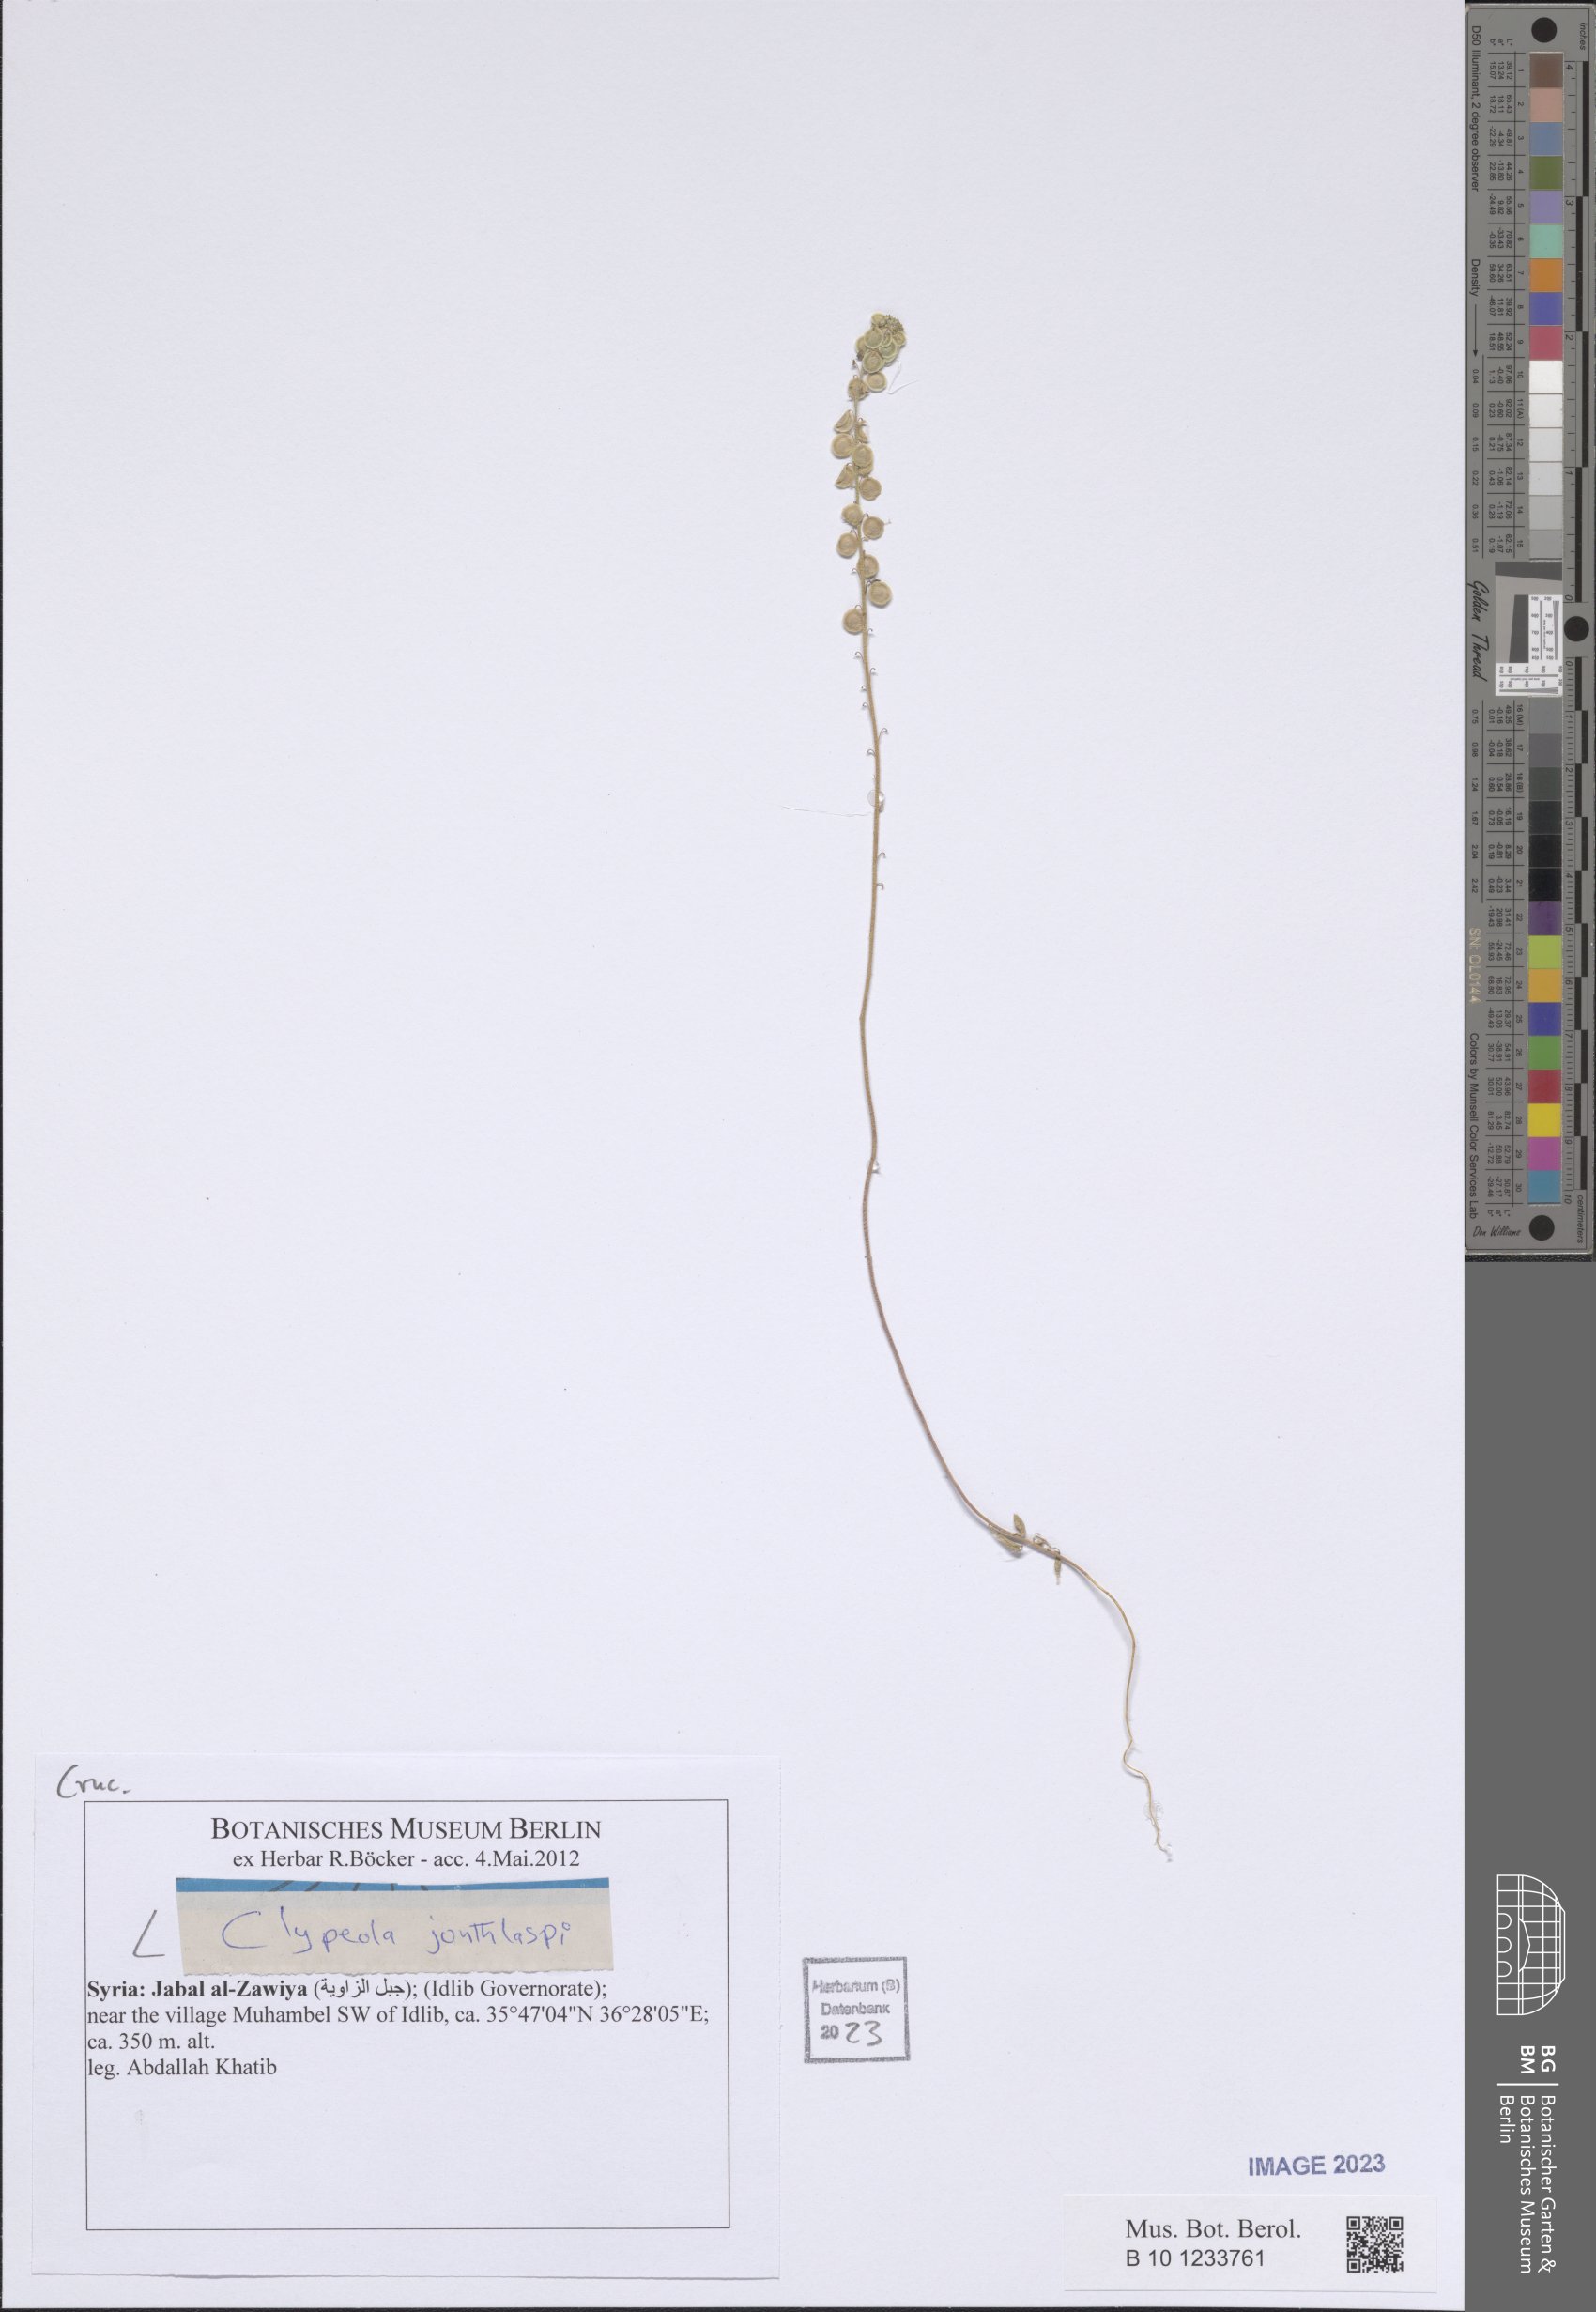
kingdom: Plantae
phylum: Tracheophyta
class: Magnoliopsida
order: Brassicales
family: Brassicaceae
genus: Clypeola
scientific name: Clypeola jonthlaspi
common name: Disk cress
